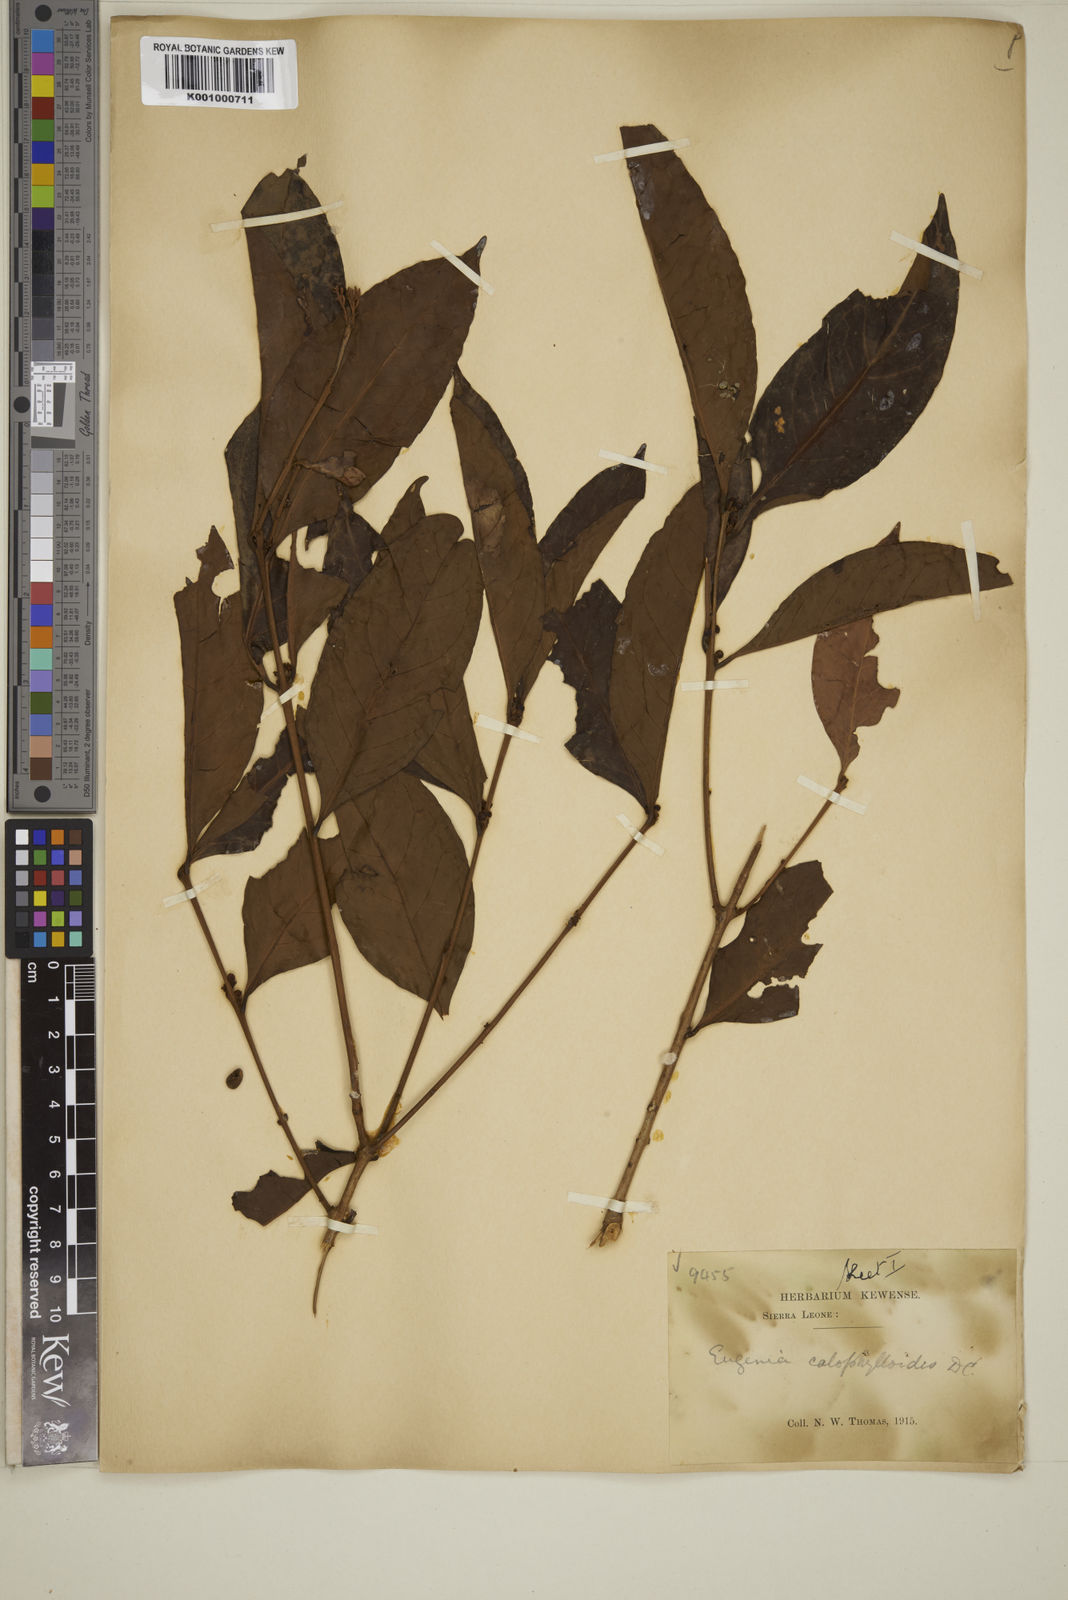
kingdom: Plantae
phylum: Tracheophyta
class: Magnoliopsida
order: Myrtales
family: Myrtaceae
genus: Eugenia
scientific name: Eugenia calophylloides
